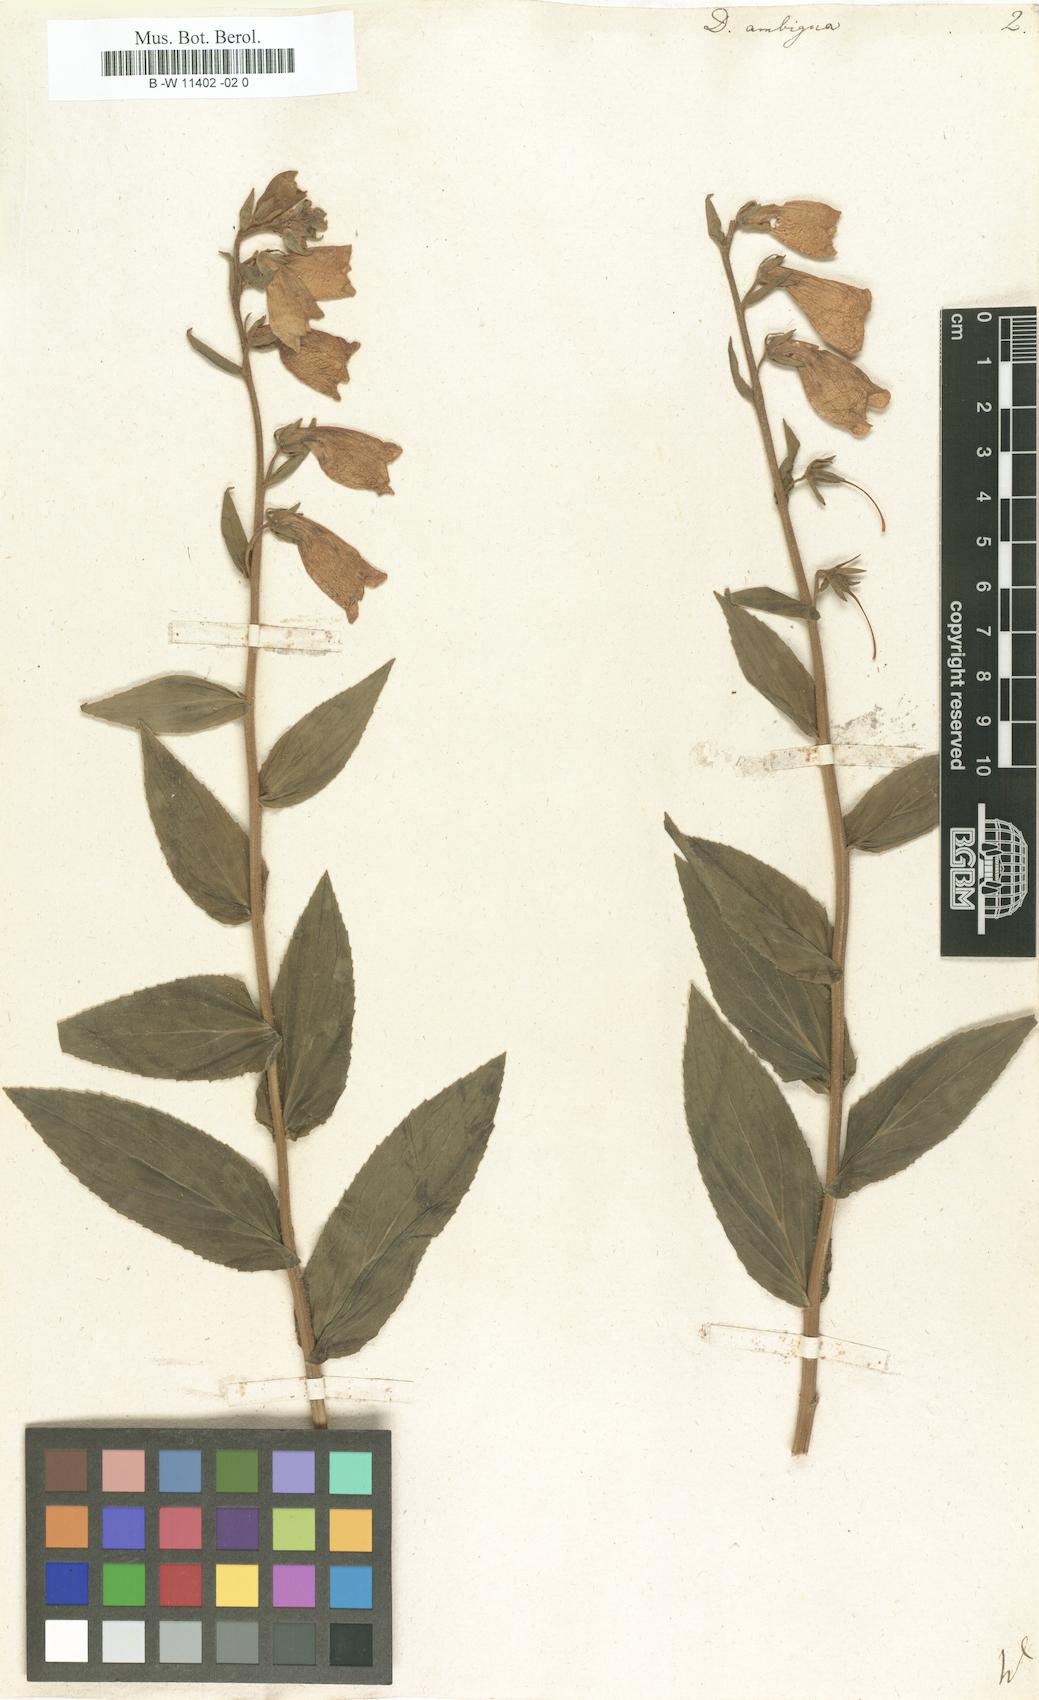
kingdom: Plantae
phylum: Tracheophyta
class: Magnoliopsida
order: Lamiales
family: Plantaginaceae
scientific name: Plantaginaceae
